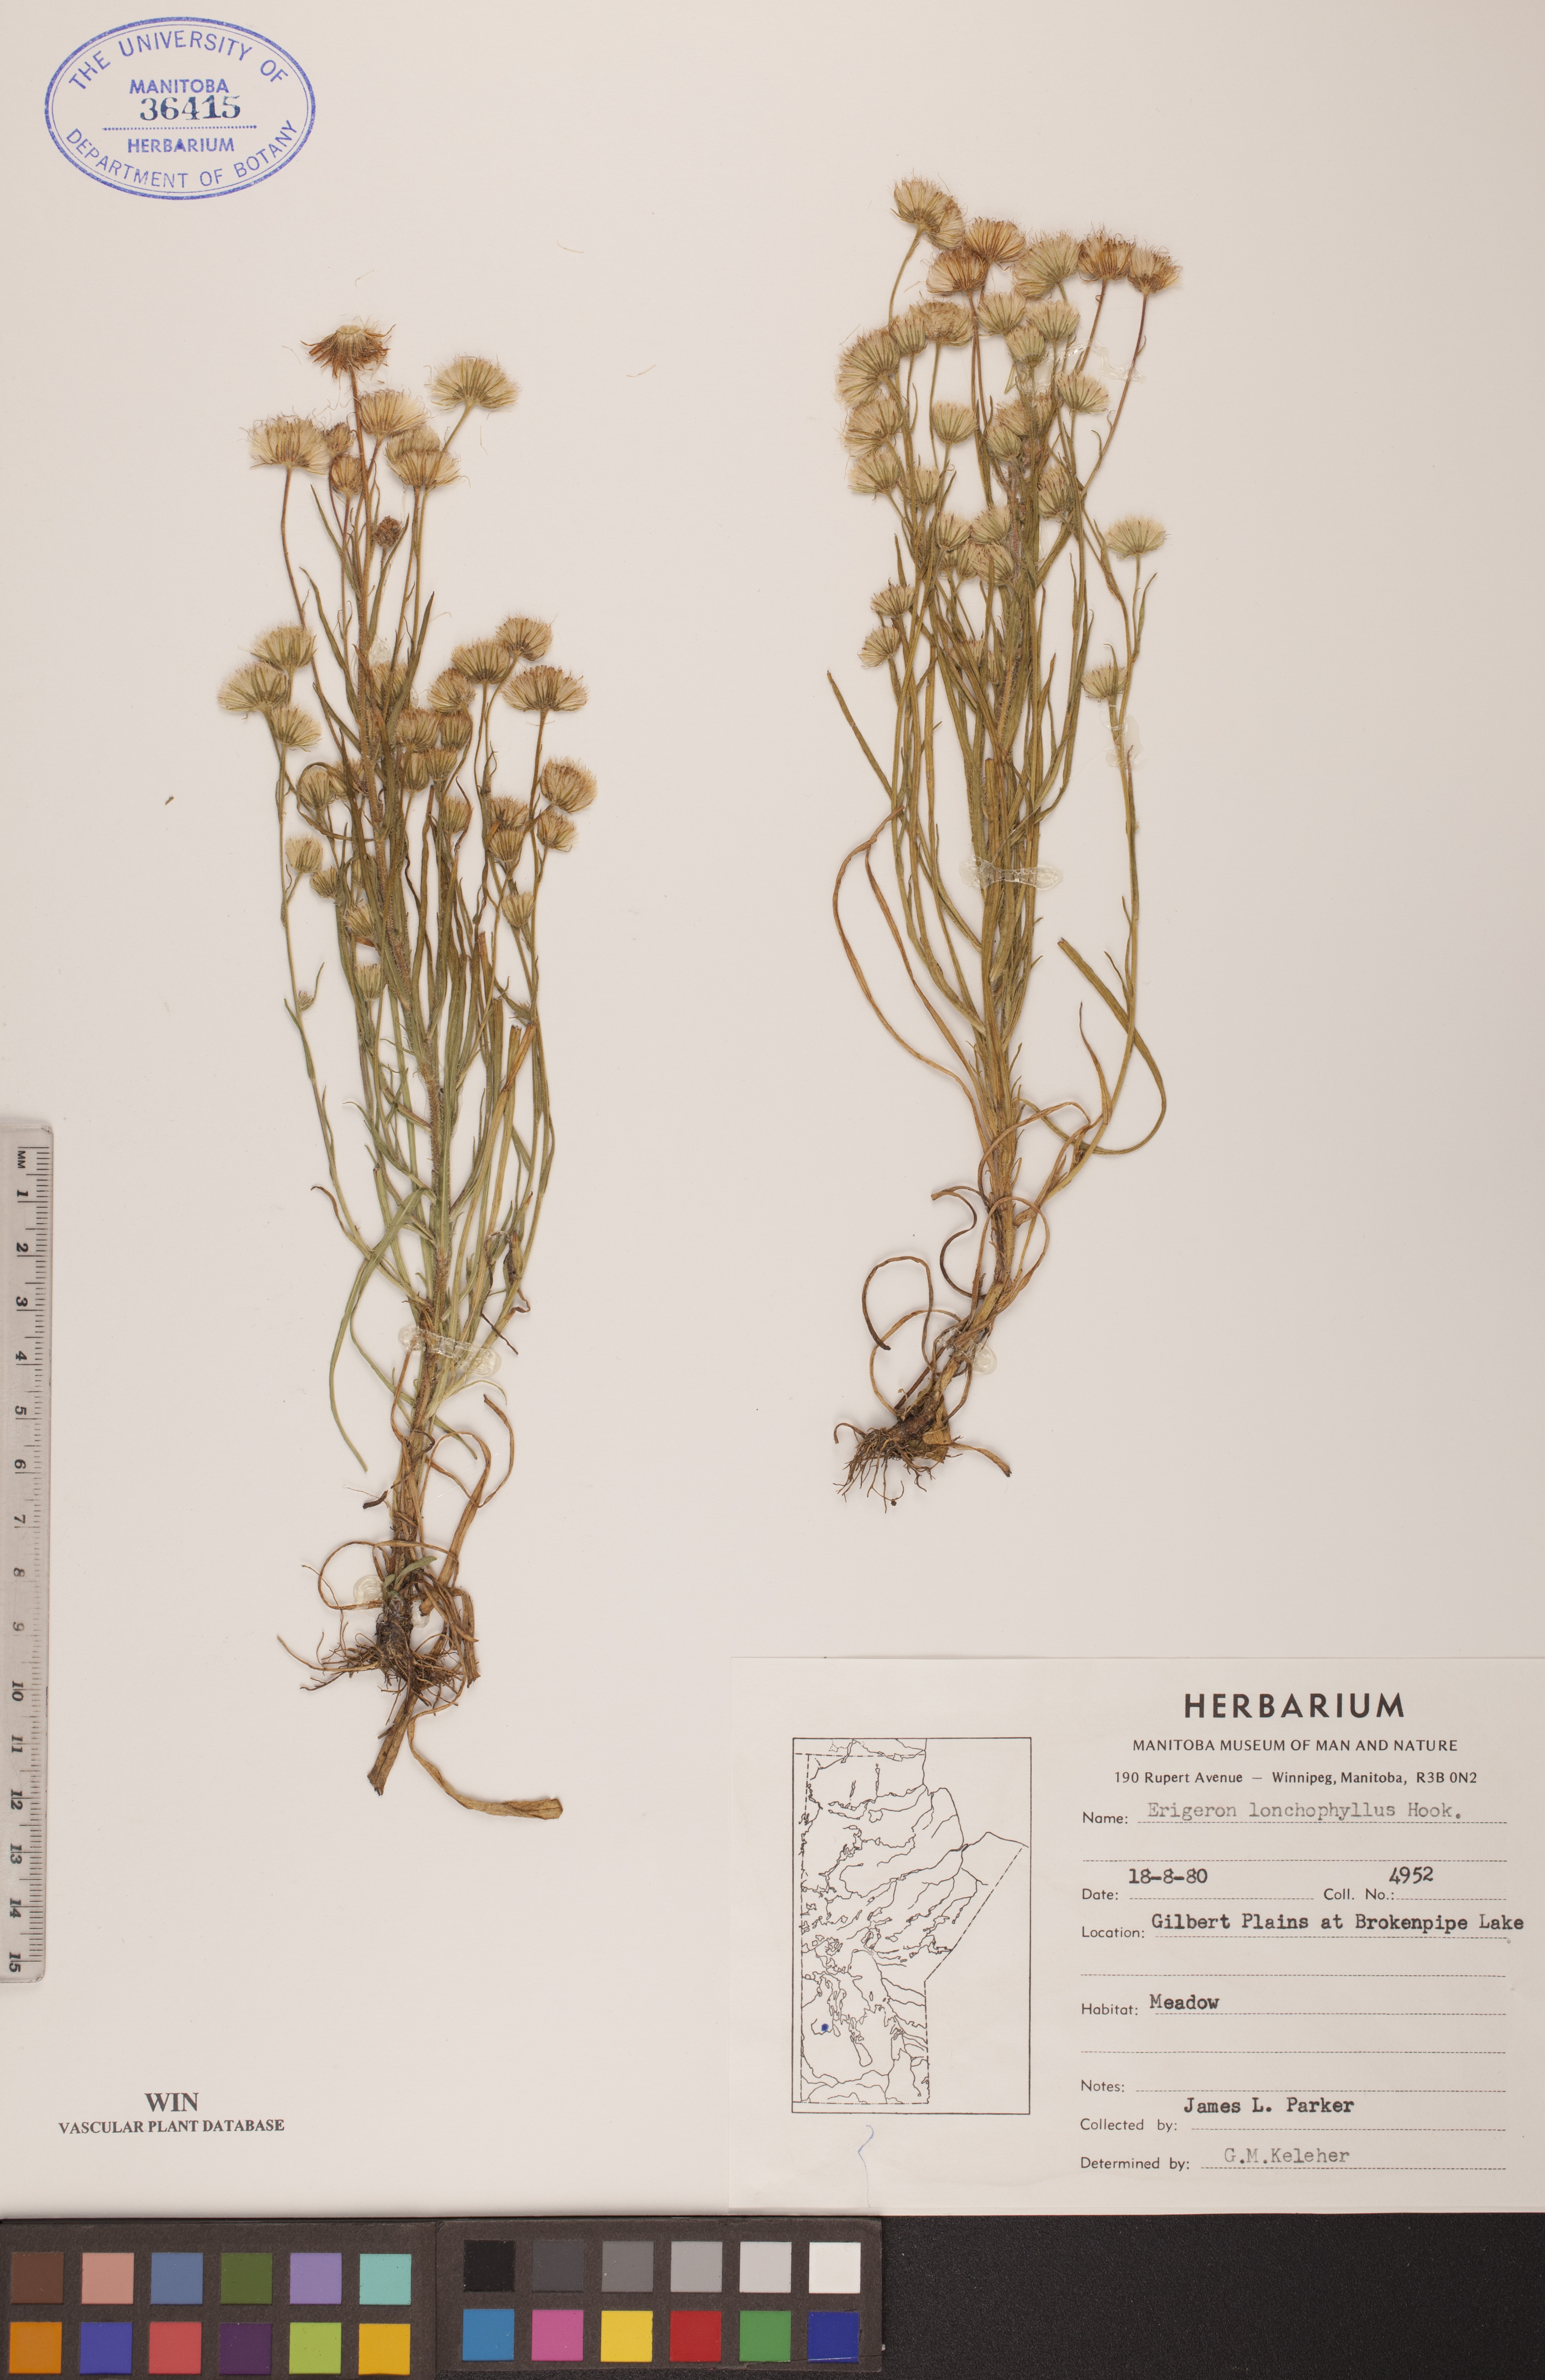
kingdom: Plantae
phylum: Tracheophyta
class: Magnoliopsida
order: Asterales
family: Asteraceae
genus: Erigeron
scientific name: Erigeron lonchophyllus
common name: Short-ray fleabane
